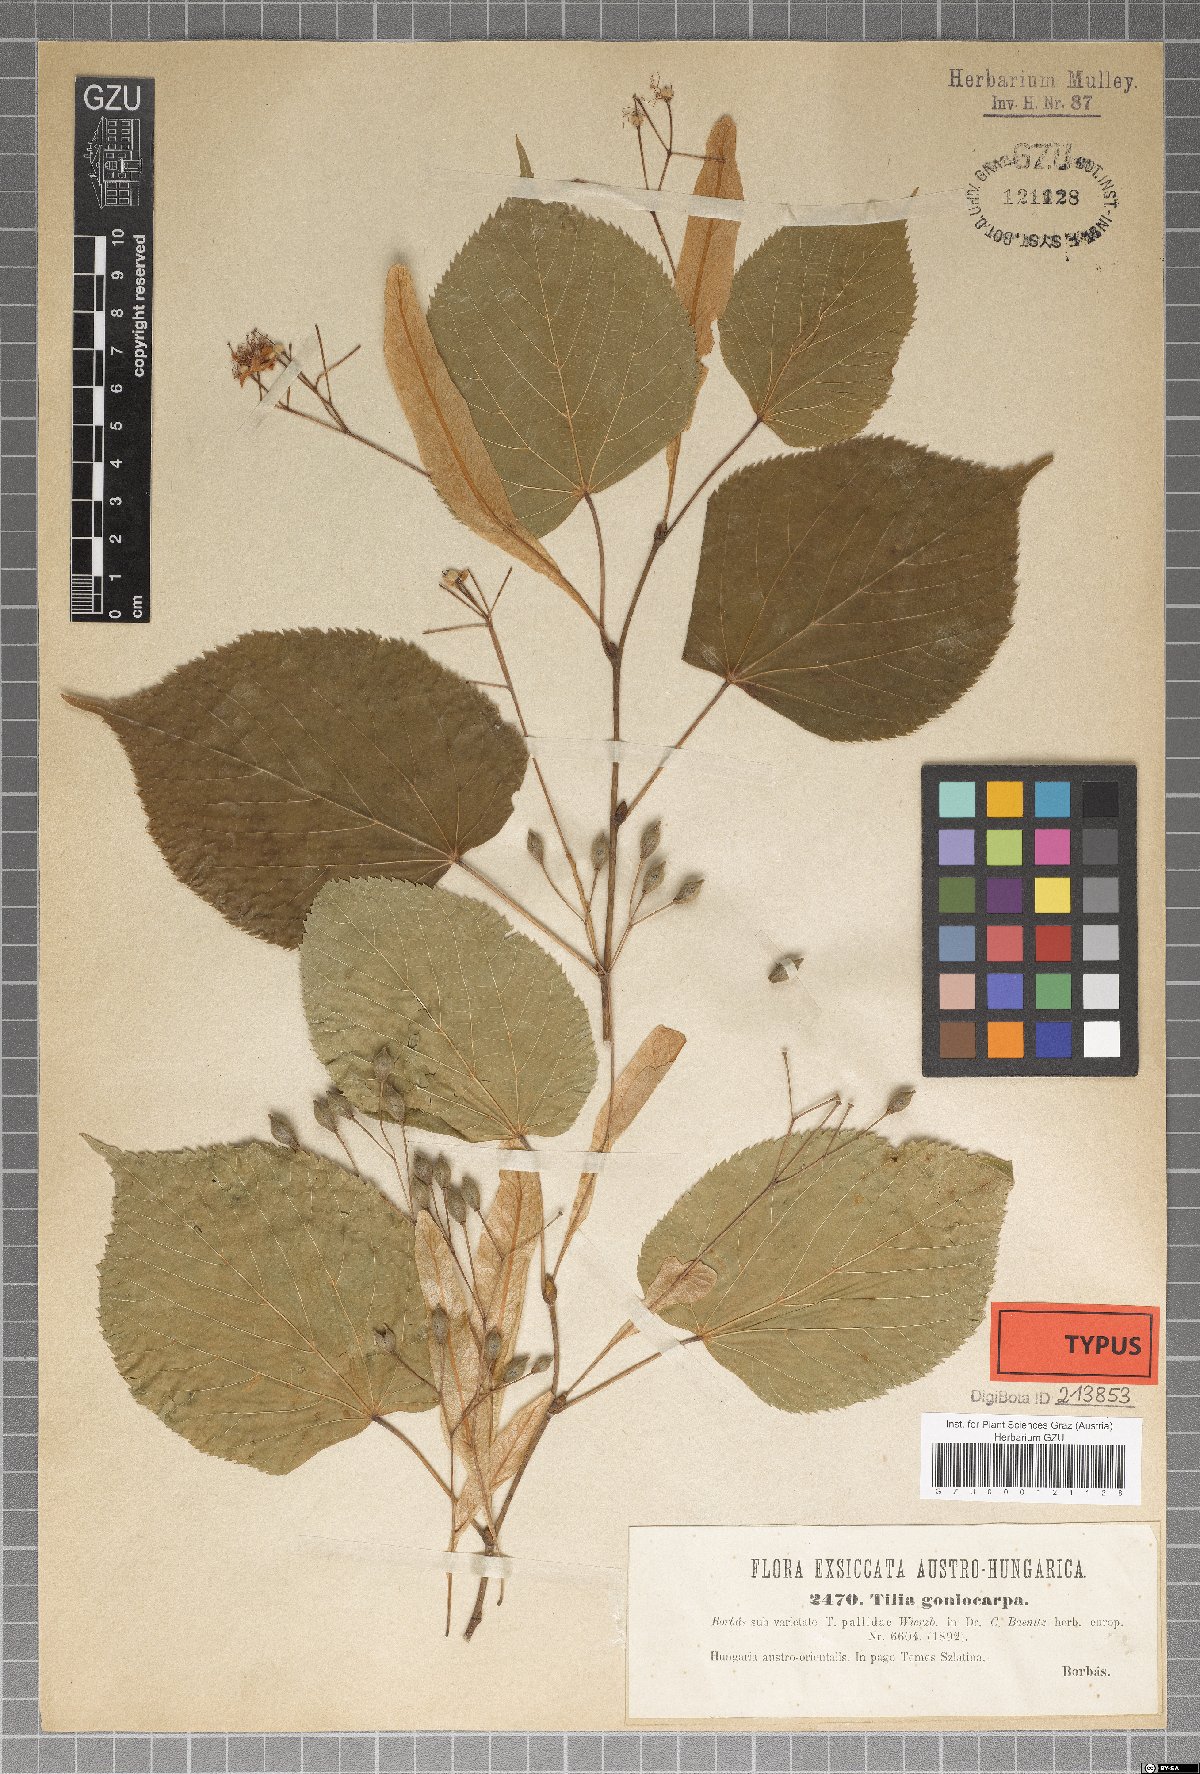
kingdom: Plantae
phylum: Tracheophyta
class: Magnoliopsida
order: Malvales
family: Malvaceae
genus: Tilia
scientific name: Tilia cordata
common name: Small-leaved lime
